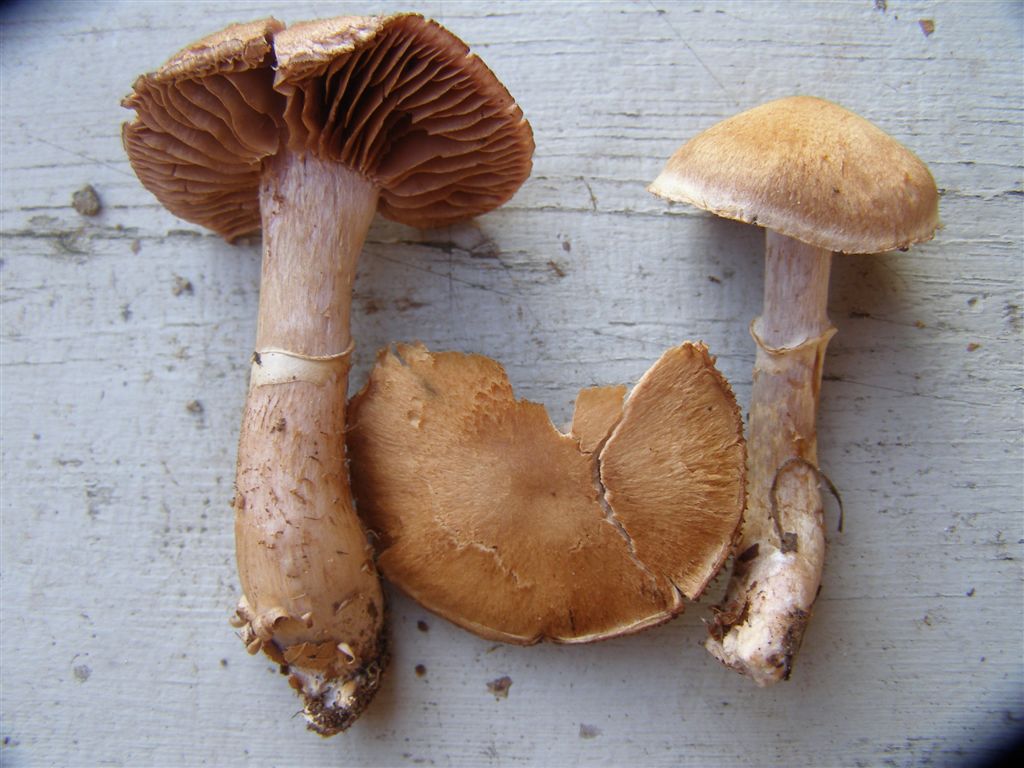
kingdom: Fungi
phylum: Basidiomycota
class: Agaricomycetes
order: Agaricales
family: Cortinariaceae
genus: Cortinarius
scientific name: Cortinarius torvus
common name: champignonagtig slørhat
